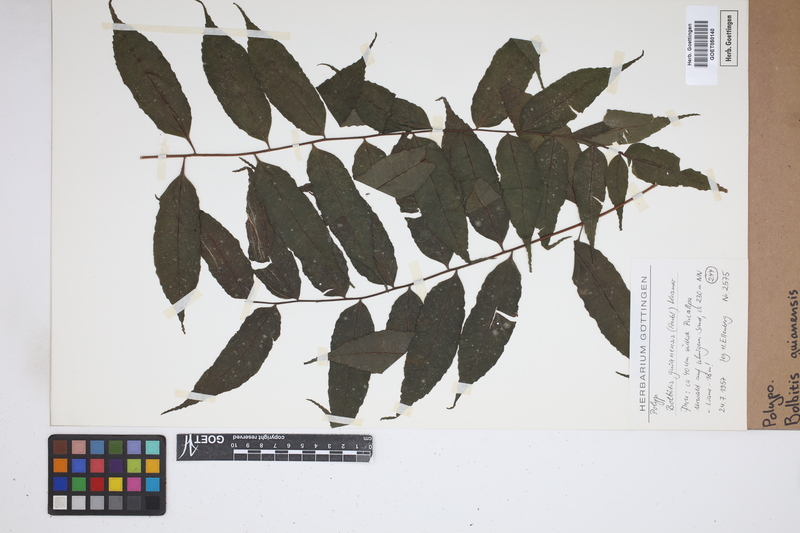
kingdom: Plantae
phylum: Tracheophyta
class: Polypodiopsida
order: Polypodiales
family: Dryopteridaceae
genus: Mickelia
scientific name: Mickelia guianensis
